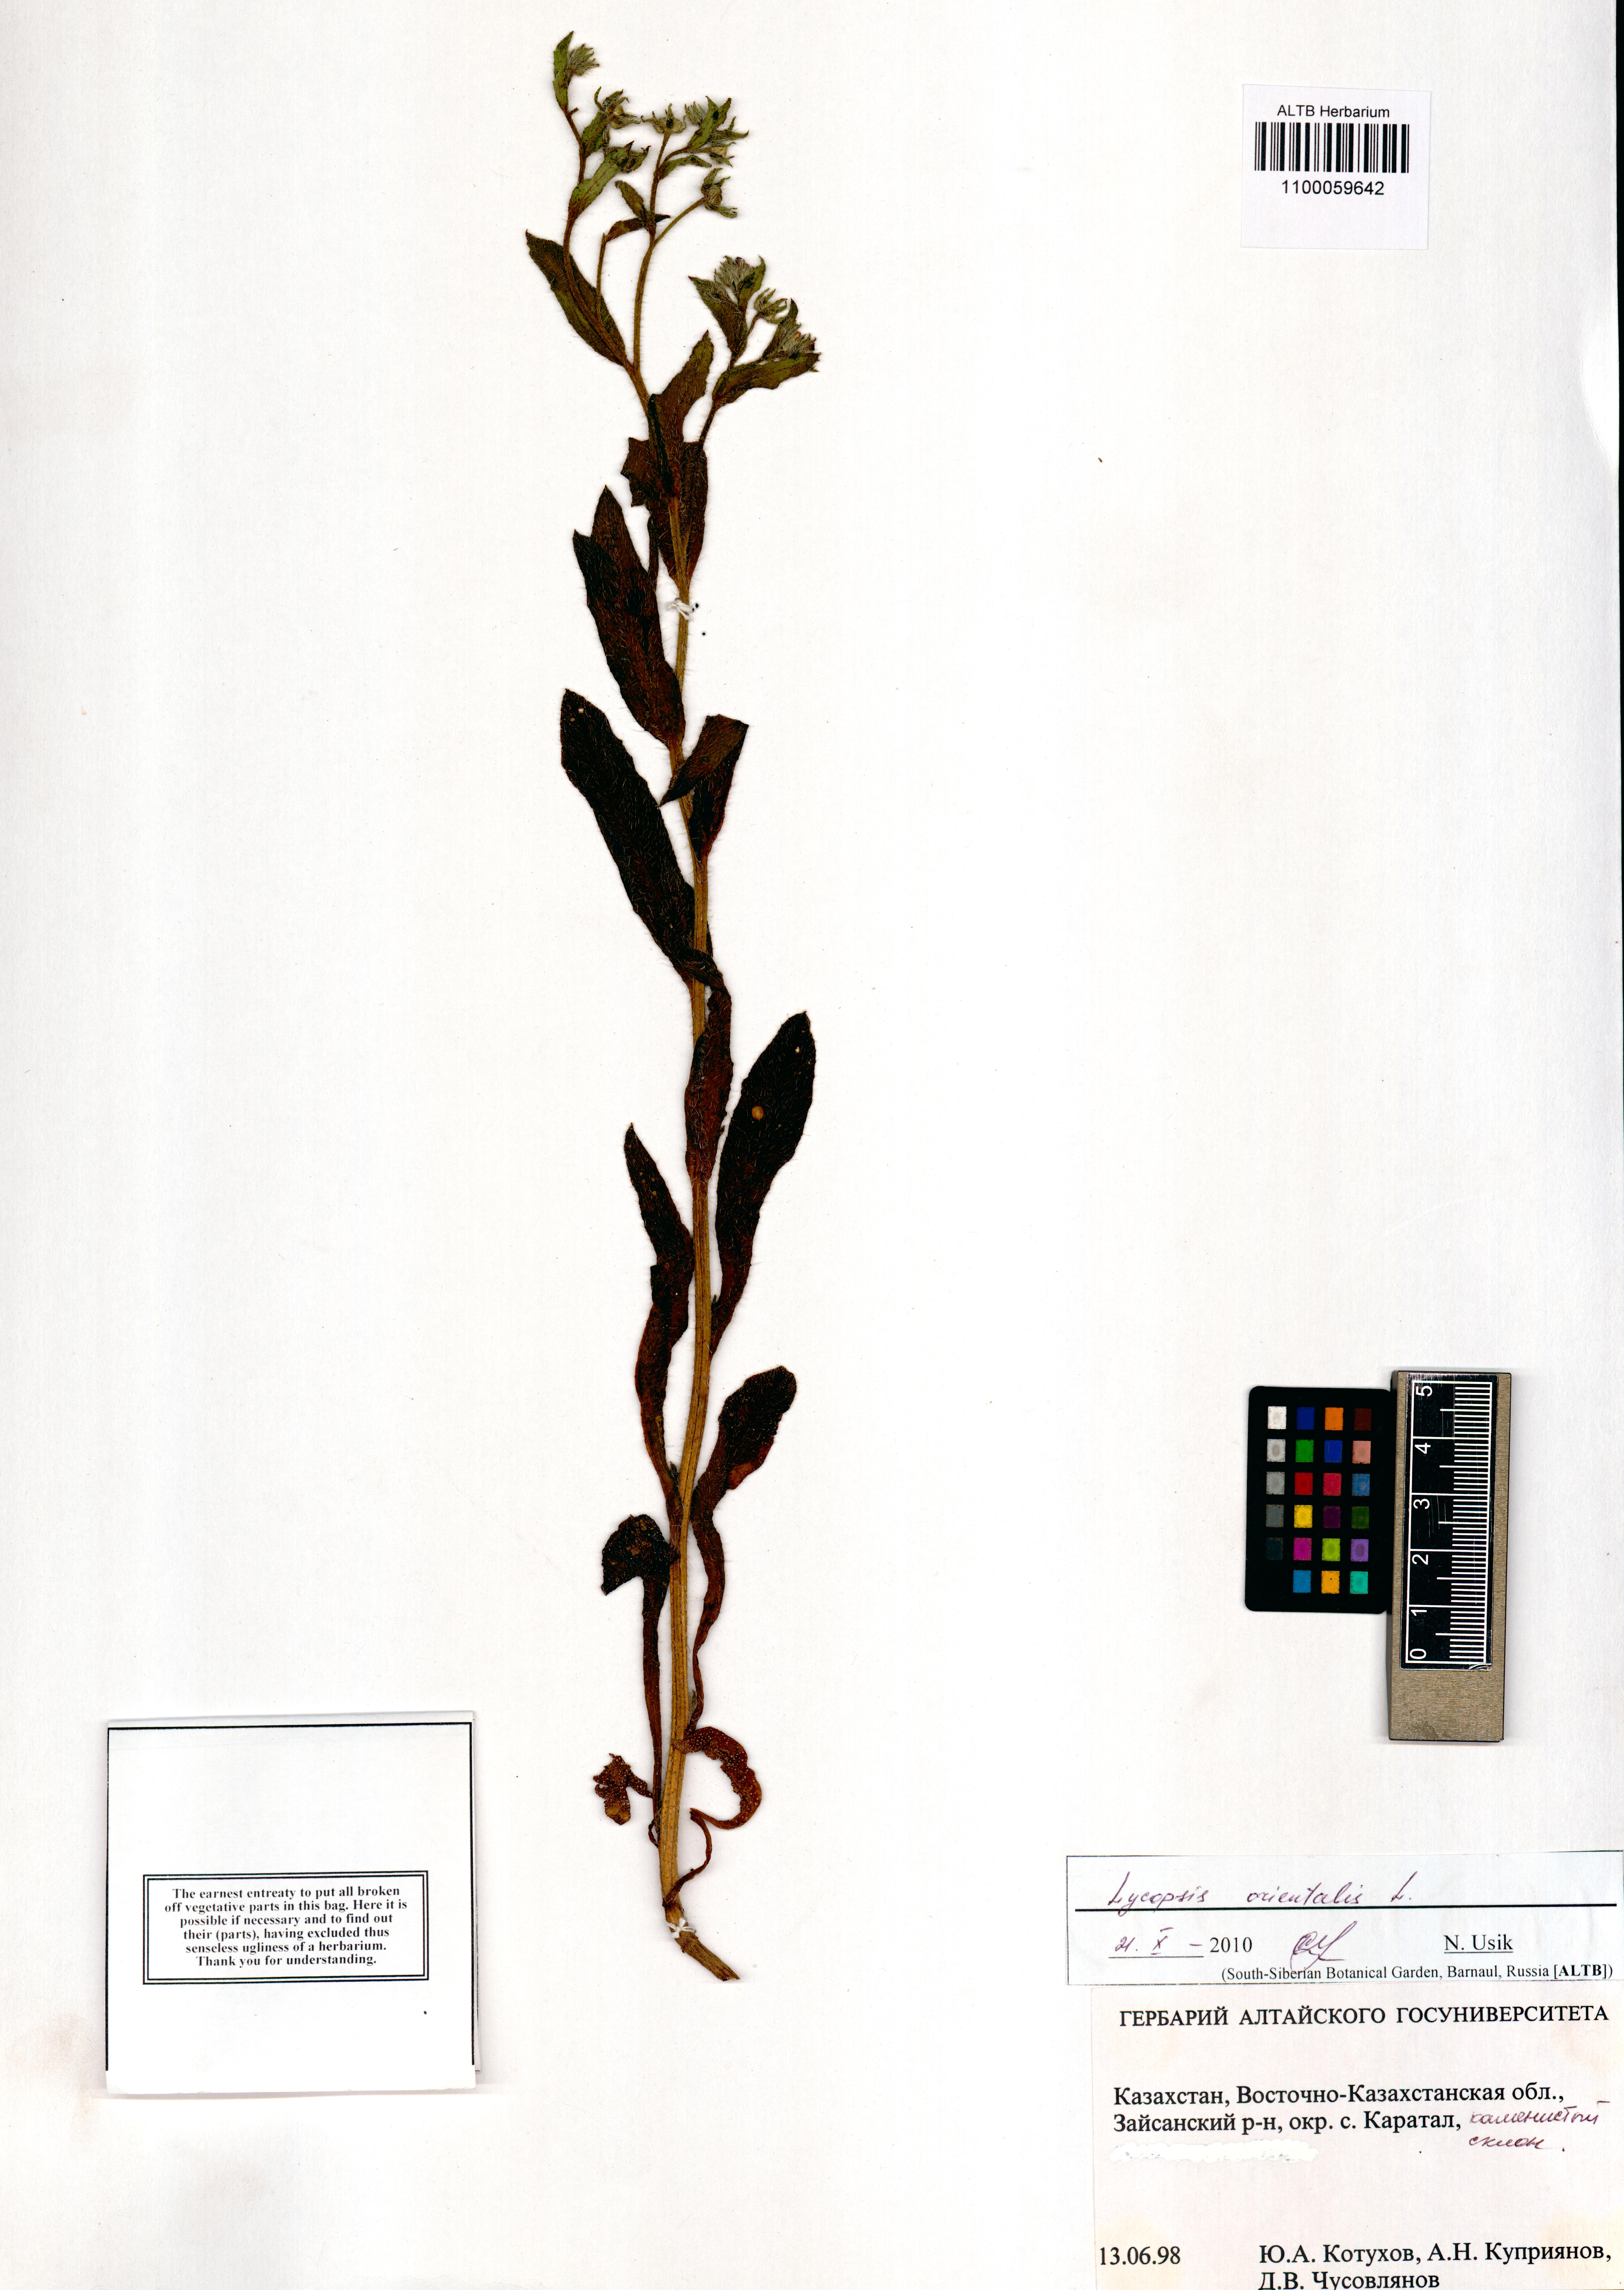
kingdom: Plantae
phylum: Tracheophyta
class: Magnoliopsida
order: Boraginales
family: Boraginaceae
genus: Lycopsis
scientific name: Lycopsis arvensis
